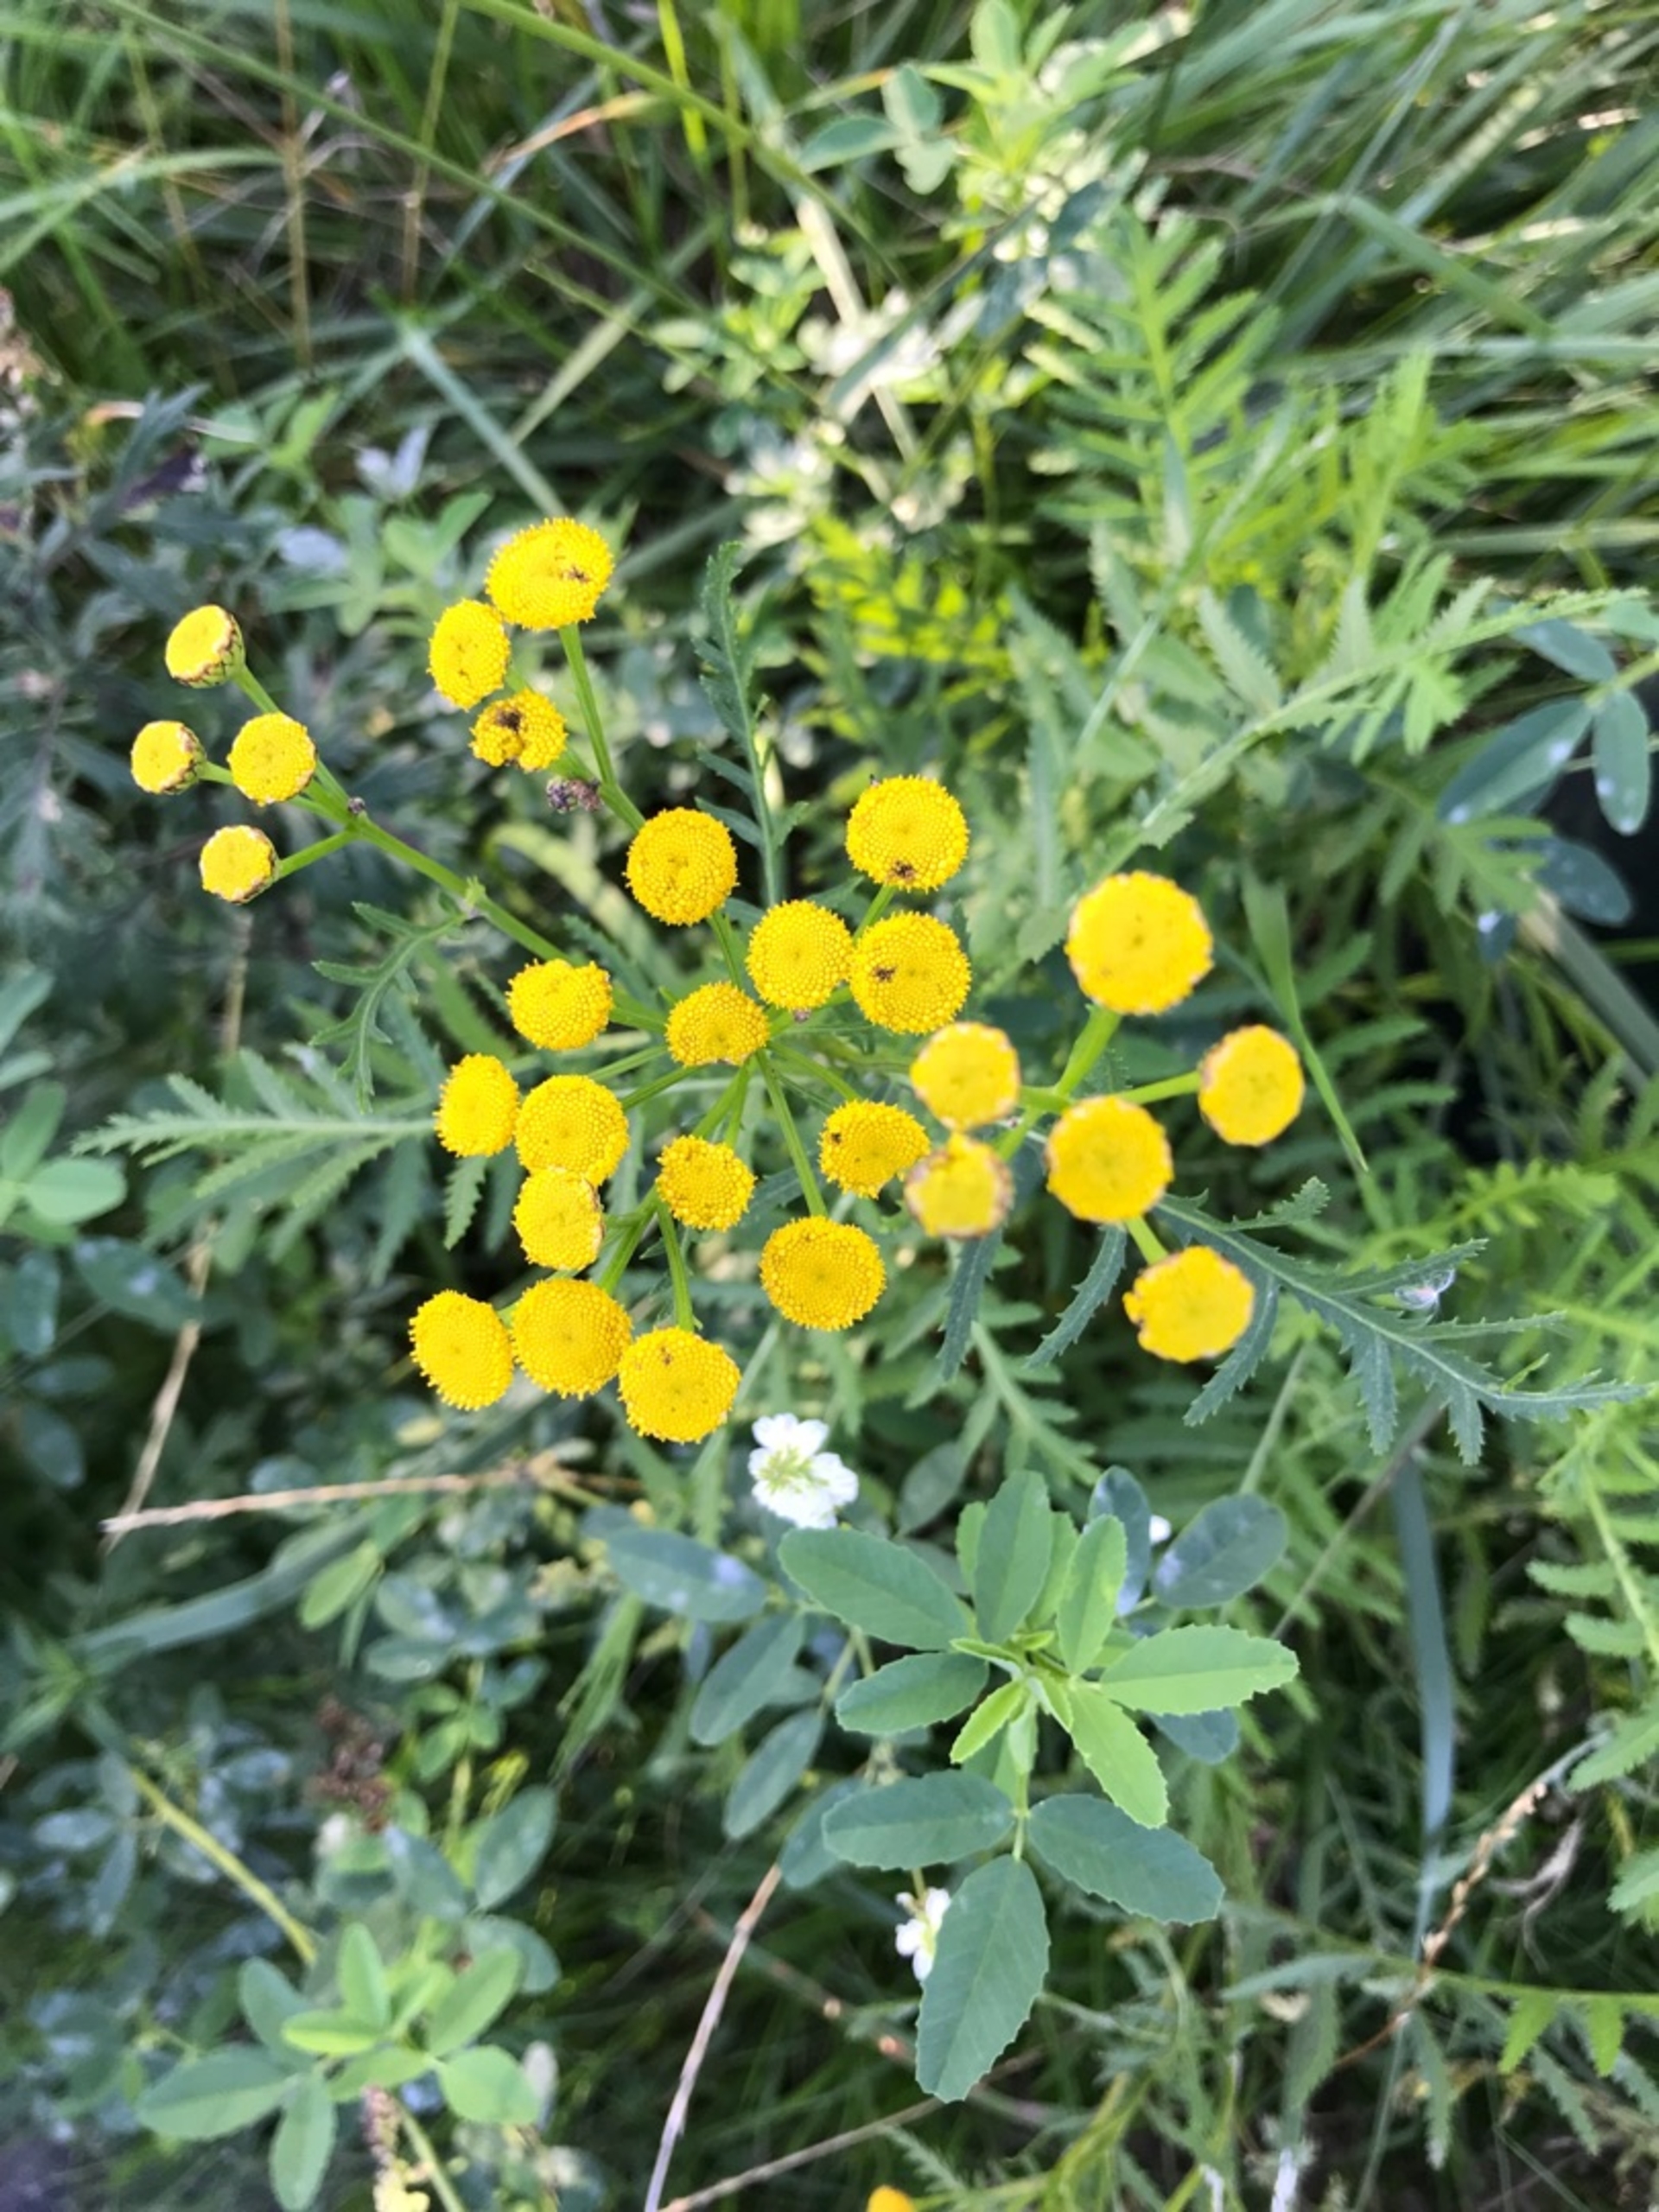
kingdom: Plantae
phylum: Tracheophyta
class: Magnoliopsida
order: Asterales
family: Asteraceae
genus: Tanacetum
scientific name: Tanacetum vulgare
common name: Rejnfan
